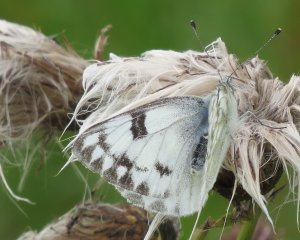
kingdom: Animalia
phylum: Arthropoda
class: Insecta
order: Lepidoptera
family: Pieridae
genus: Pontia
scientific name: Pontia protodice
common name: Checkered White
